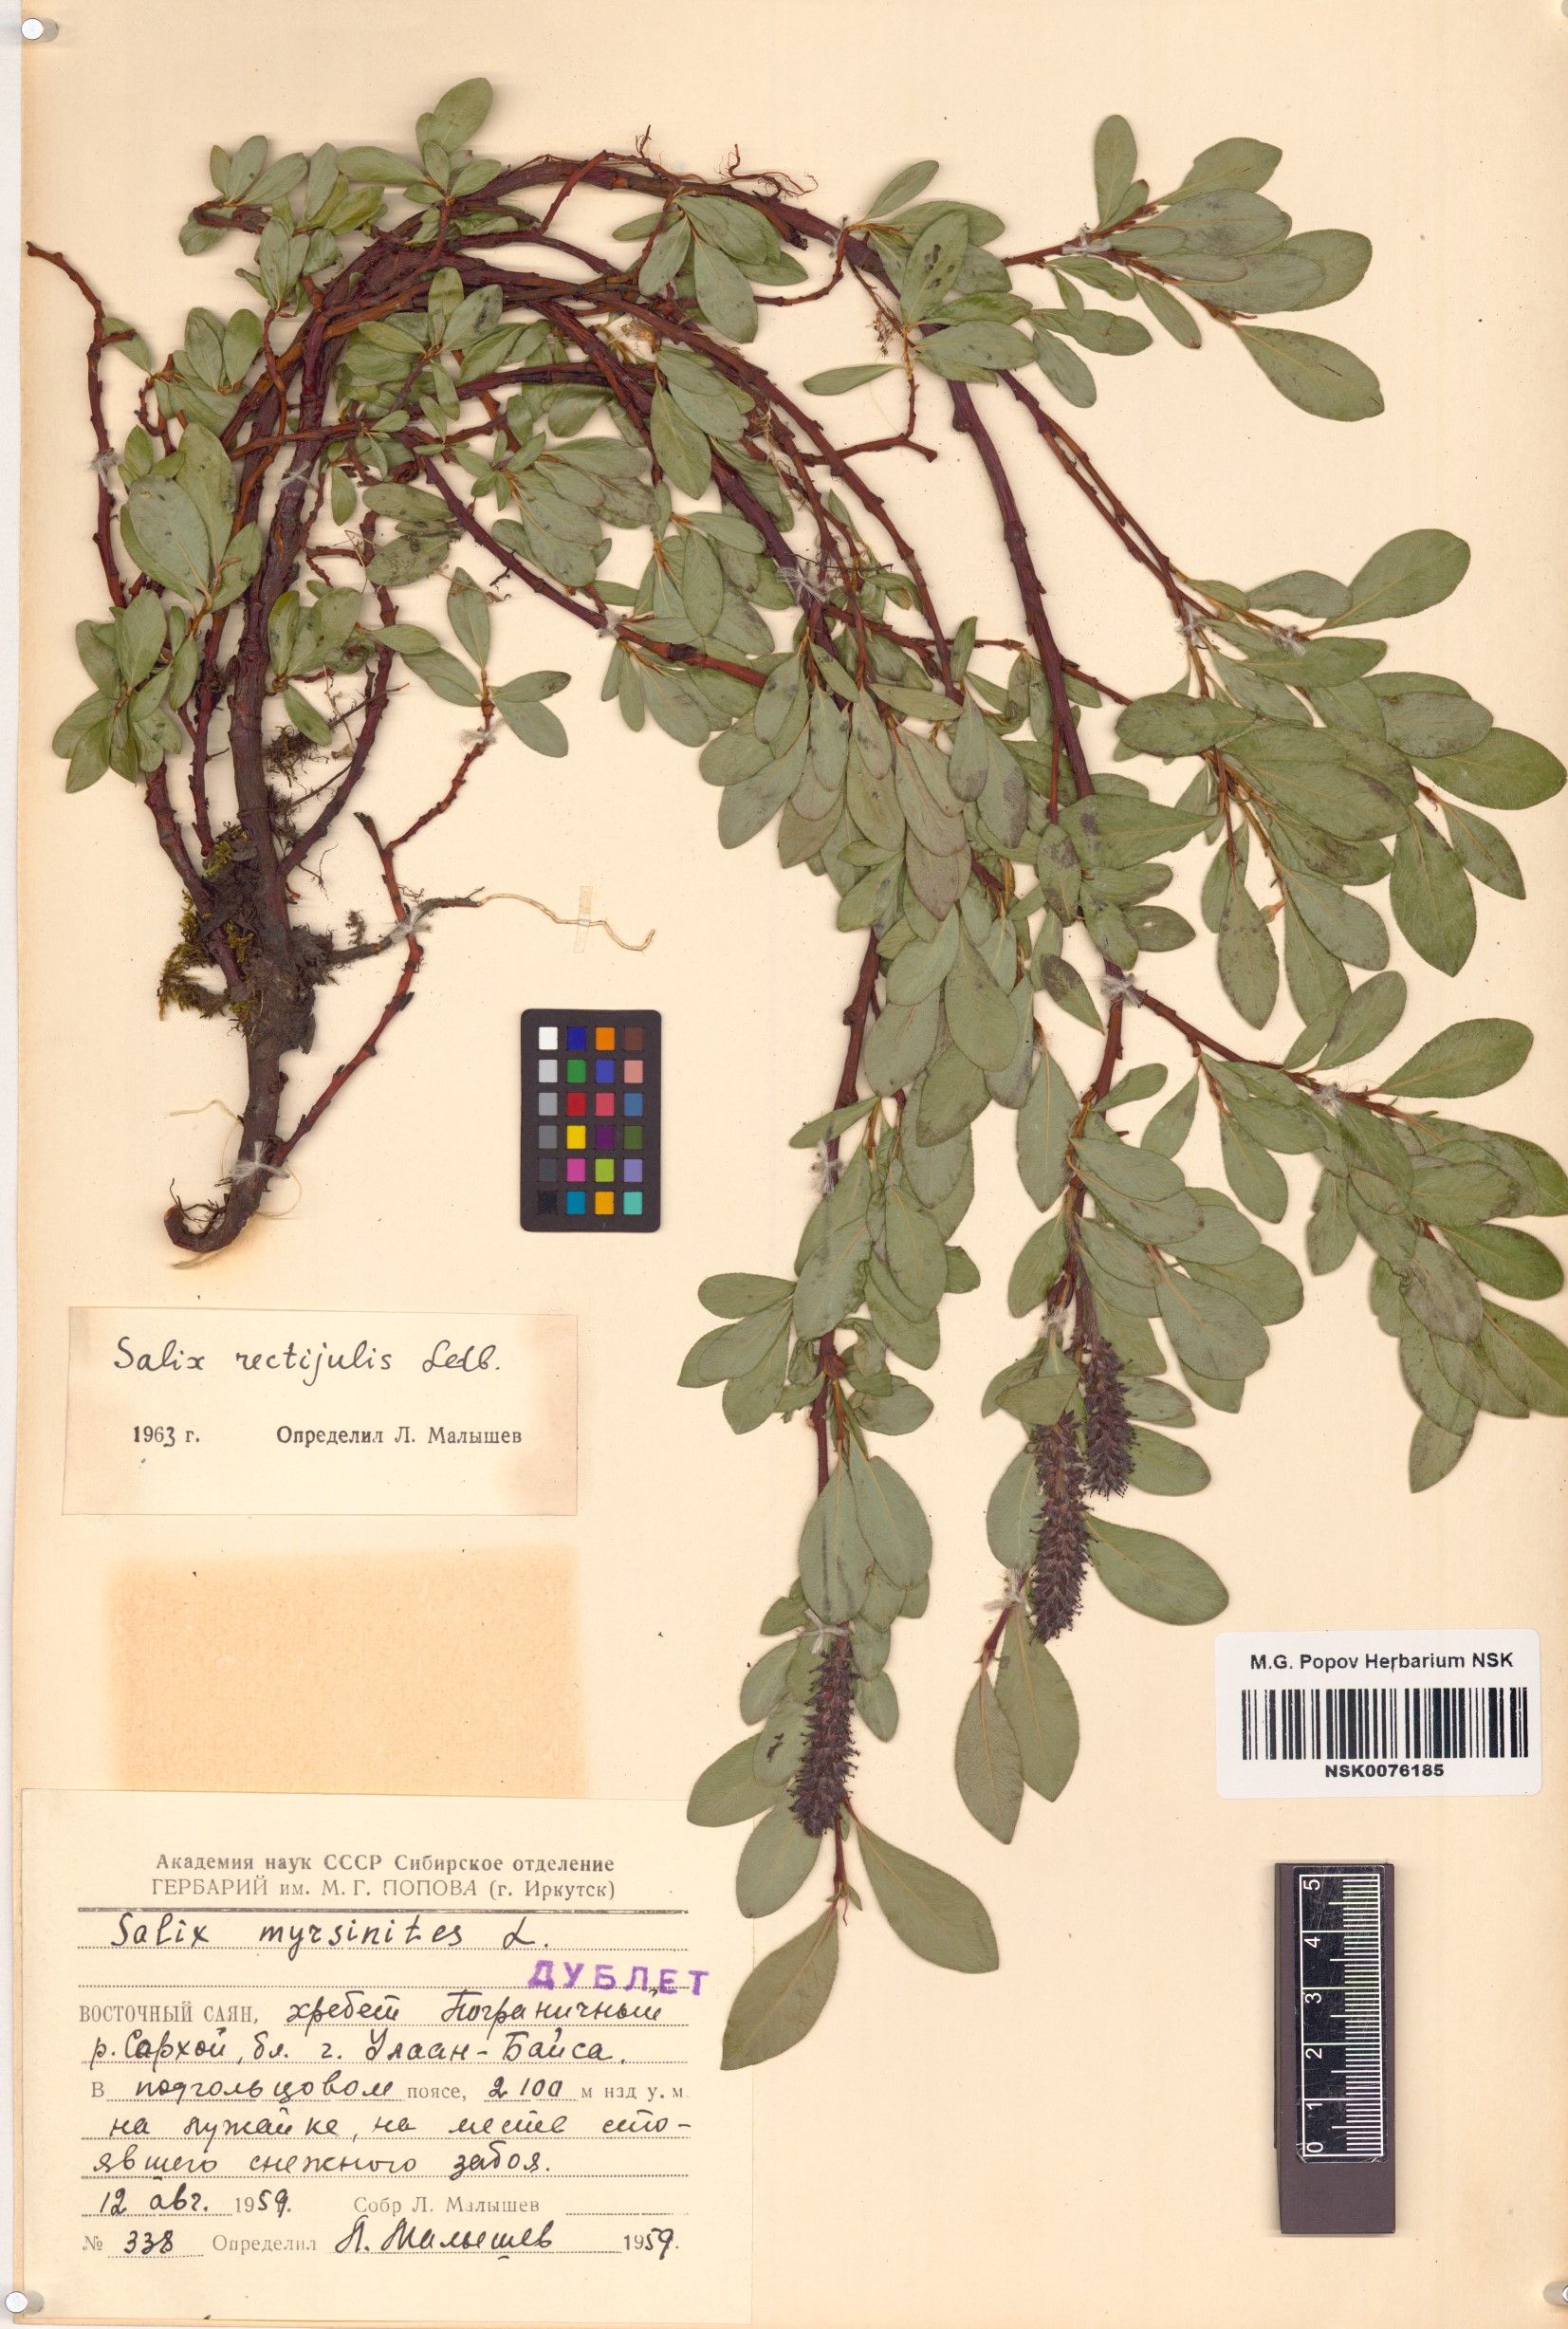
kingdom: Plantae
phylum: Tracheophyta
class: Magnoliopsida
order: Malpighiales
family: Salicaceae
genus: Salix
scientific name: Salix rectijulis
